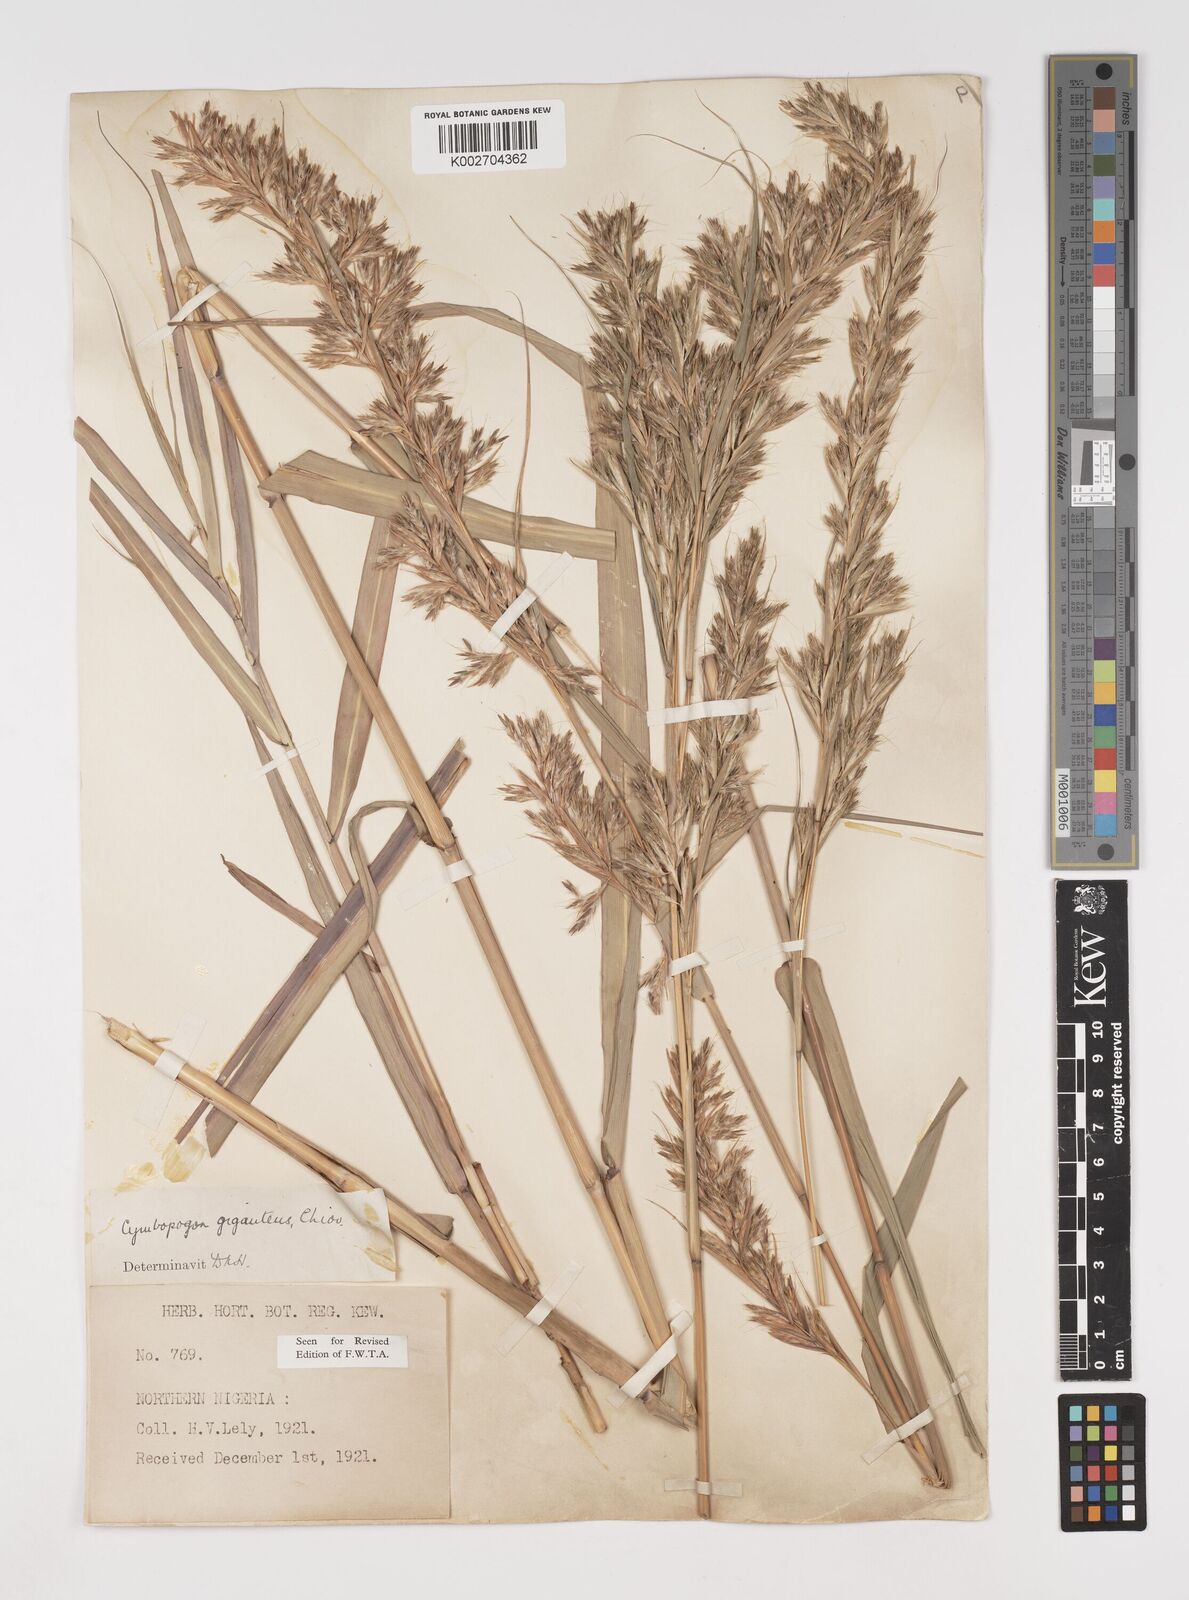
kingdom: Plantae
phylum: Tracheophyta
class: Liliopsida
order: Poales
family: Poaceae
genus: Cymbopogon
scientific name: Cymbopogon giganteus
